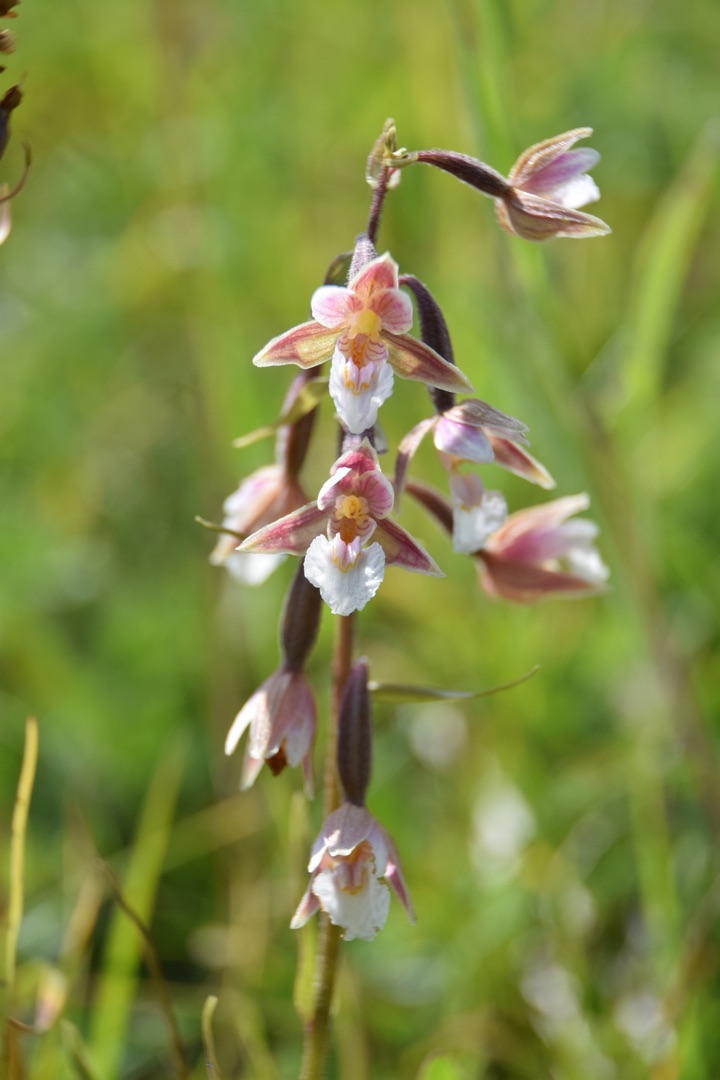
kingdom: Plantae
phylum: Tracheophyta
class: Liliopsida
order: Asparagales
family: Orchidaceae
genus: Epipactis
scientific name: Epipactis palustris
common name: Sump-hullæbe
